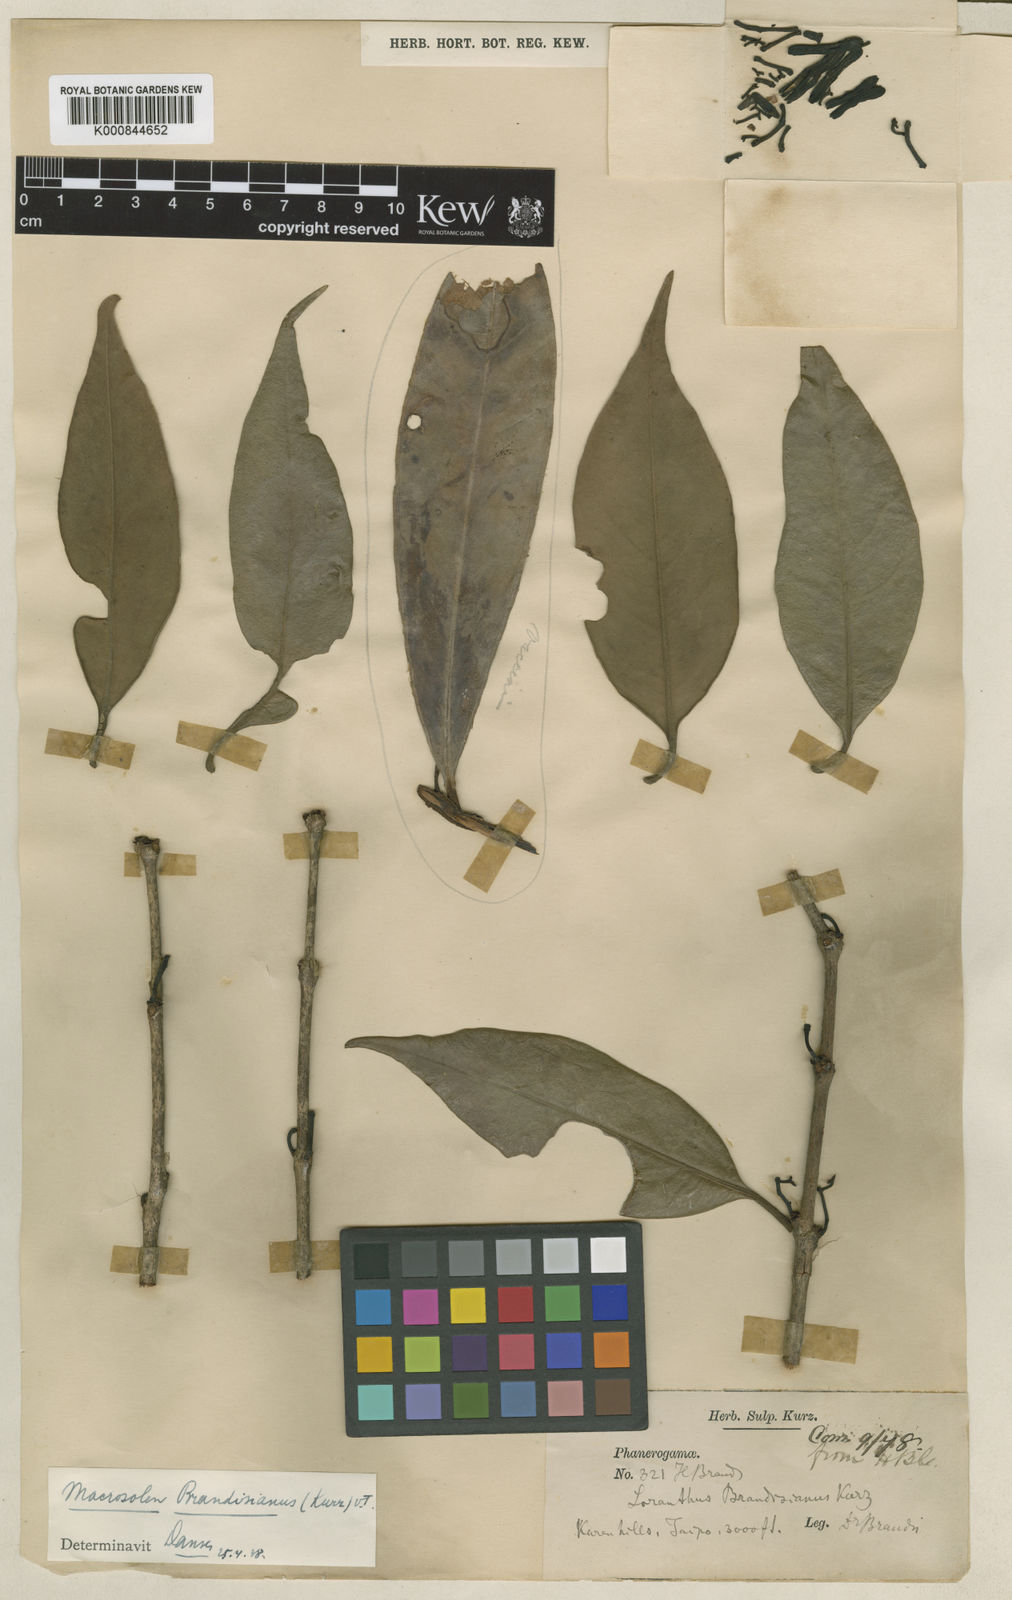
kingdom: Plantae
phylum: Tracheophyta
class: Magnoliopsida
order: Santalales
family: Loranthaceae
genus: Macrosolen
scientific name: Macrosolen brandisianus
